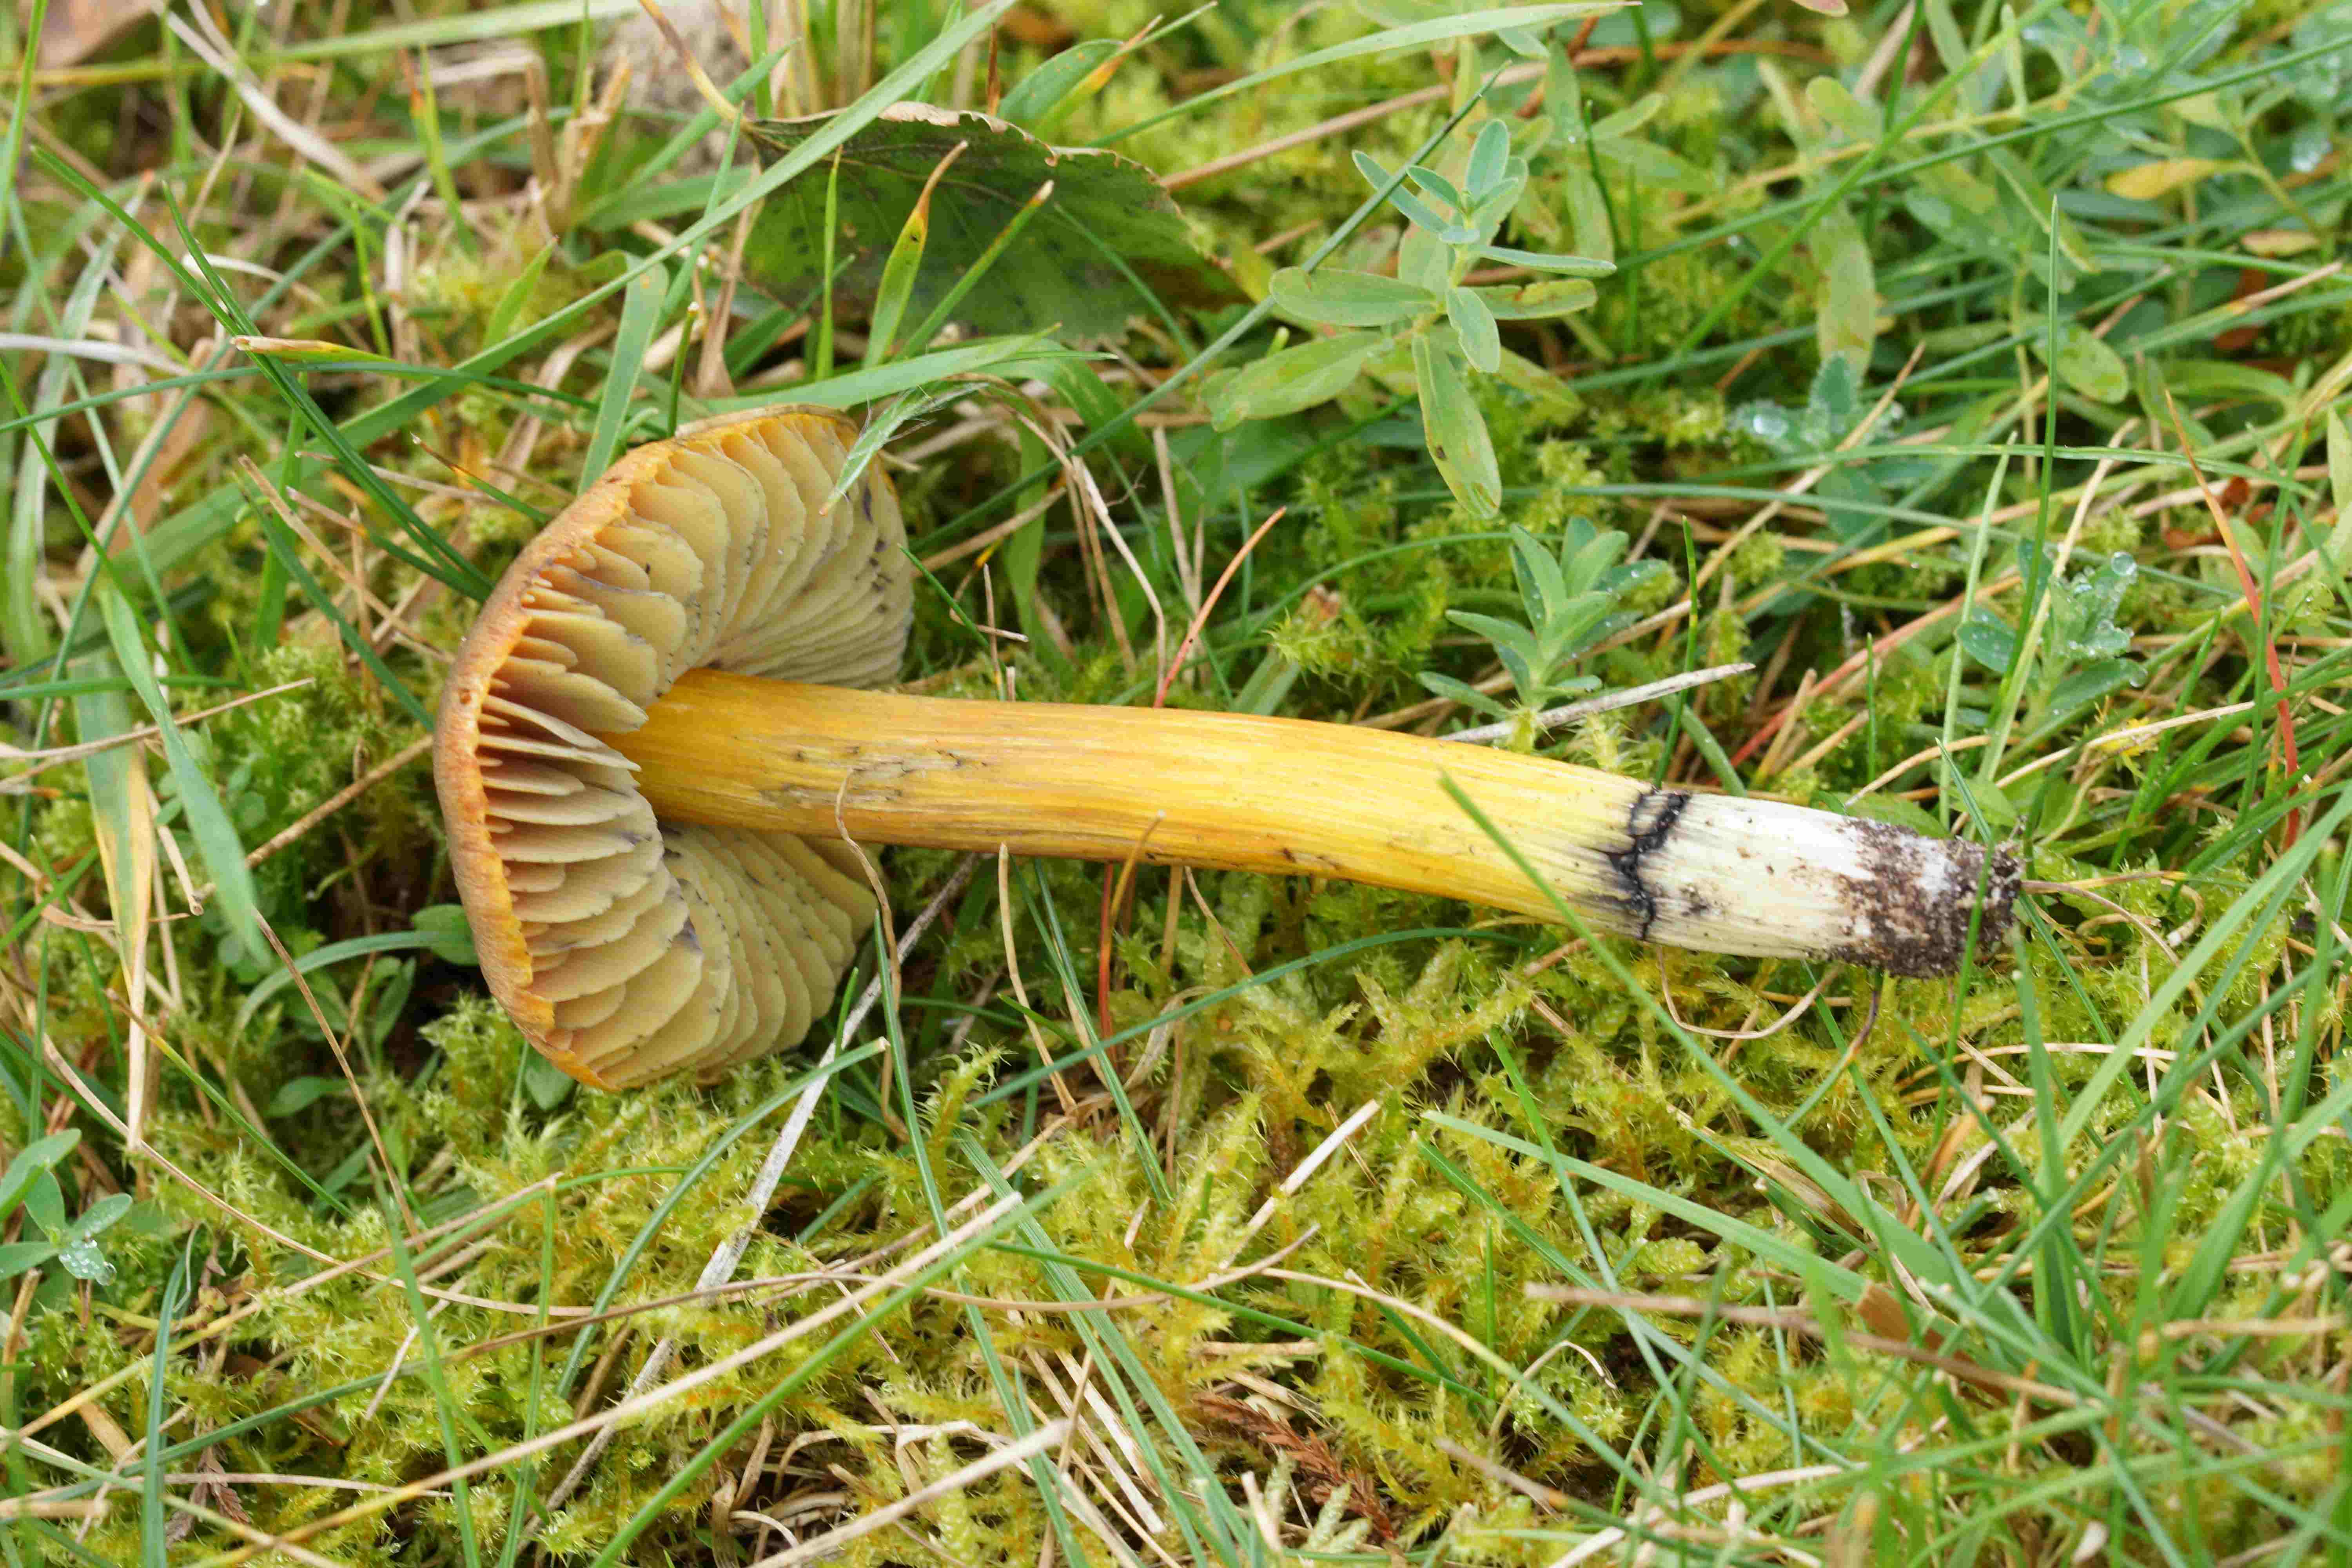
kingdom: Fungi
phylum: Basidiomycota
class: Agaricomycetes
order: Agaricales
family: Hygrophoraceae
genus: Hygrocybe
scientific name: Hygrocybe conica
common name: kegle-vokshat
